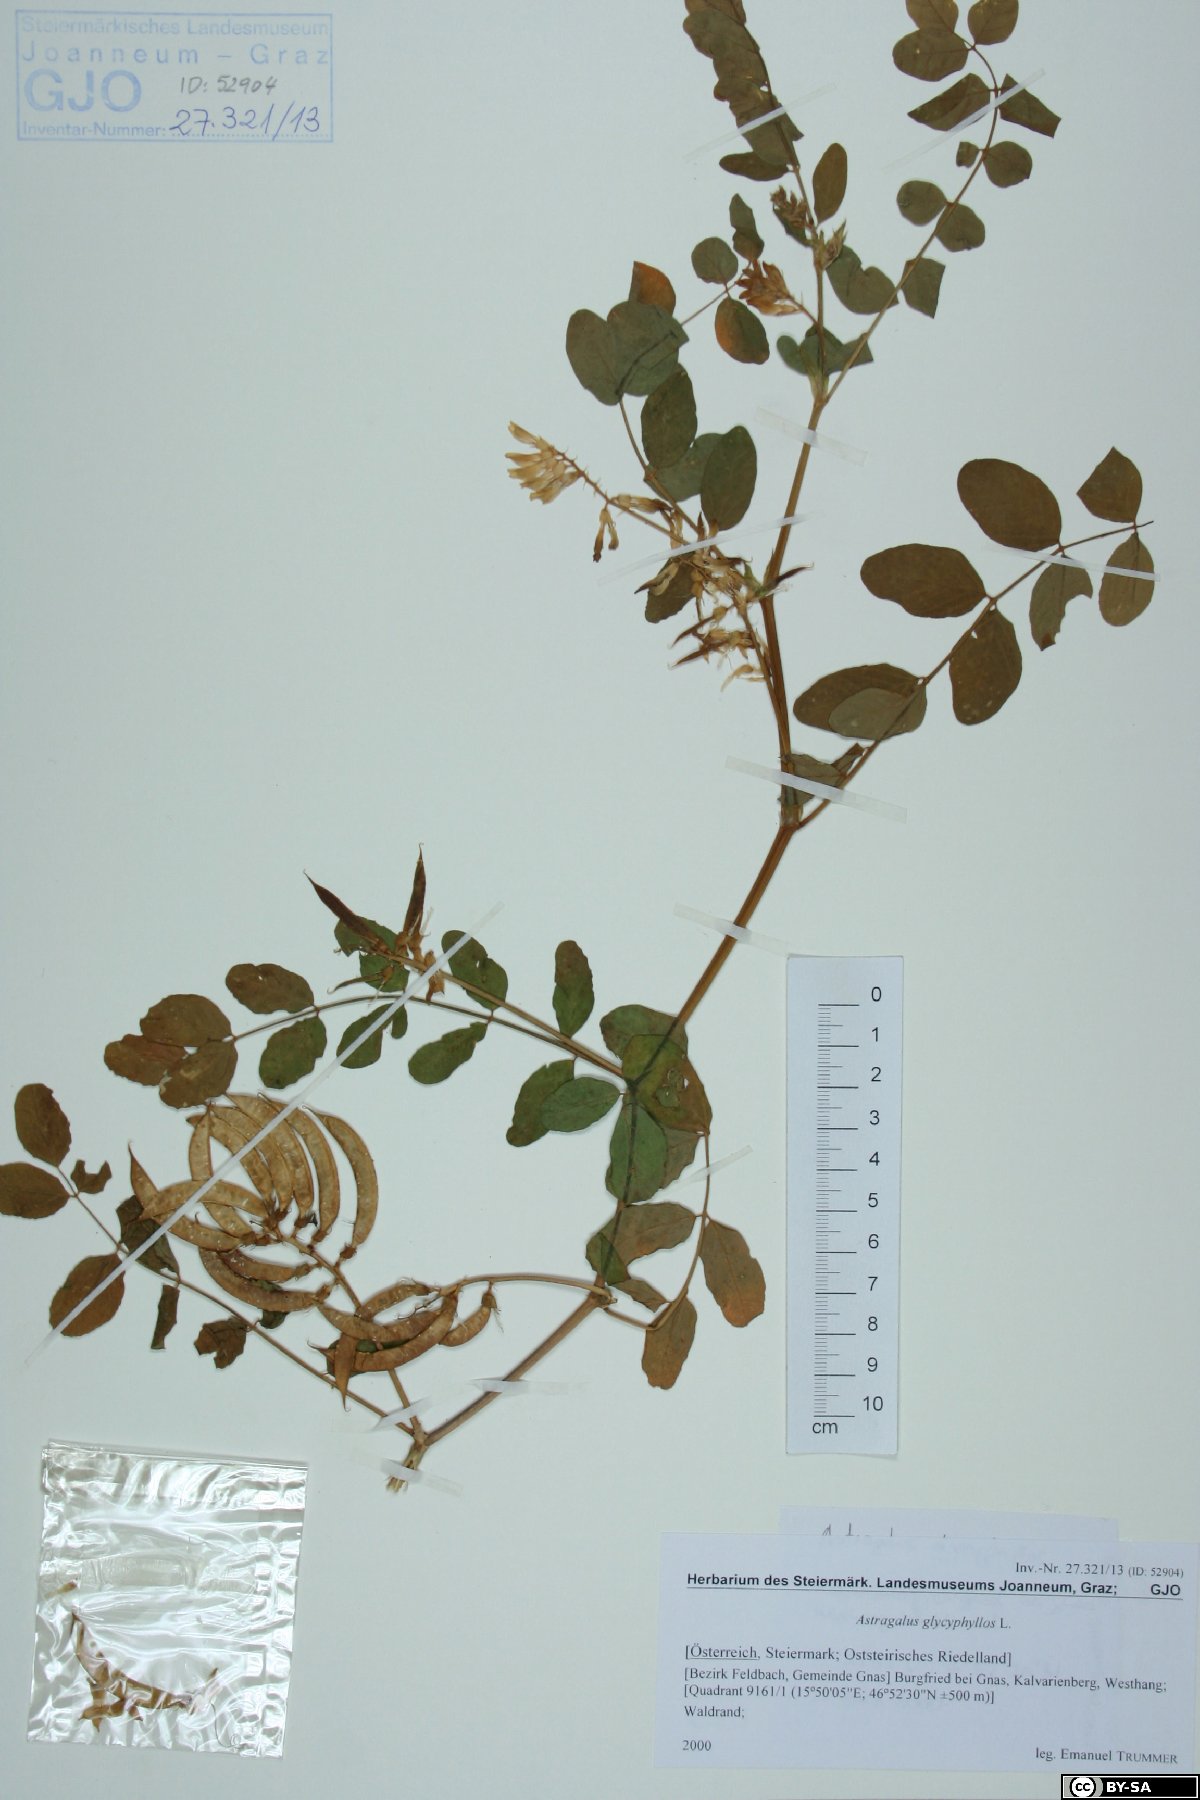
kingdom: Plantae
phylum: Tracheophyta
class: Magnoliopsida
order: Fabales
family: Fabaceae
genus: Astragalus
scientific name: Astragalus glycyphyllos
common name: Wild liquorice
